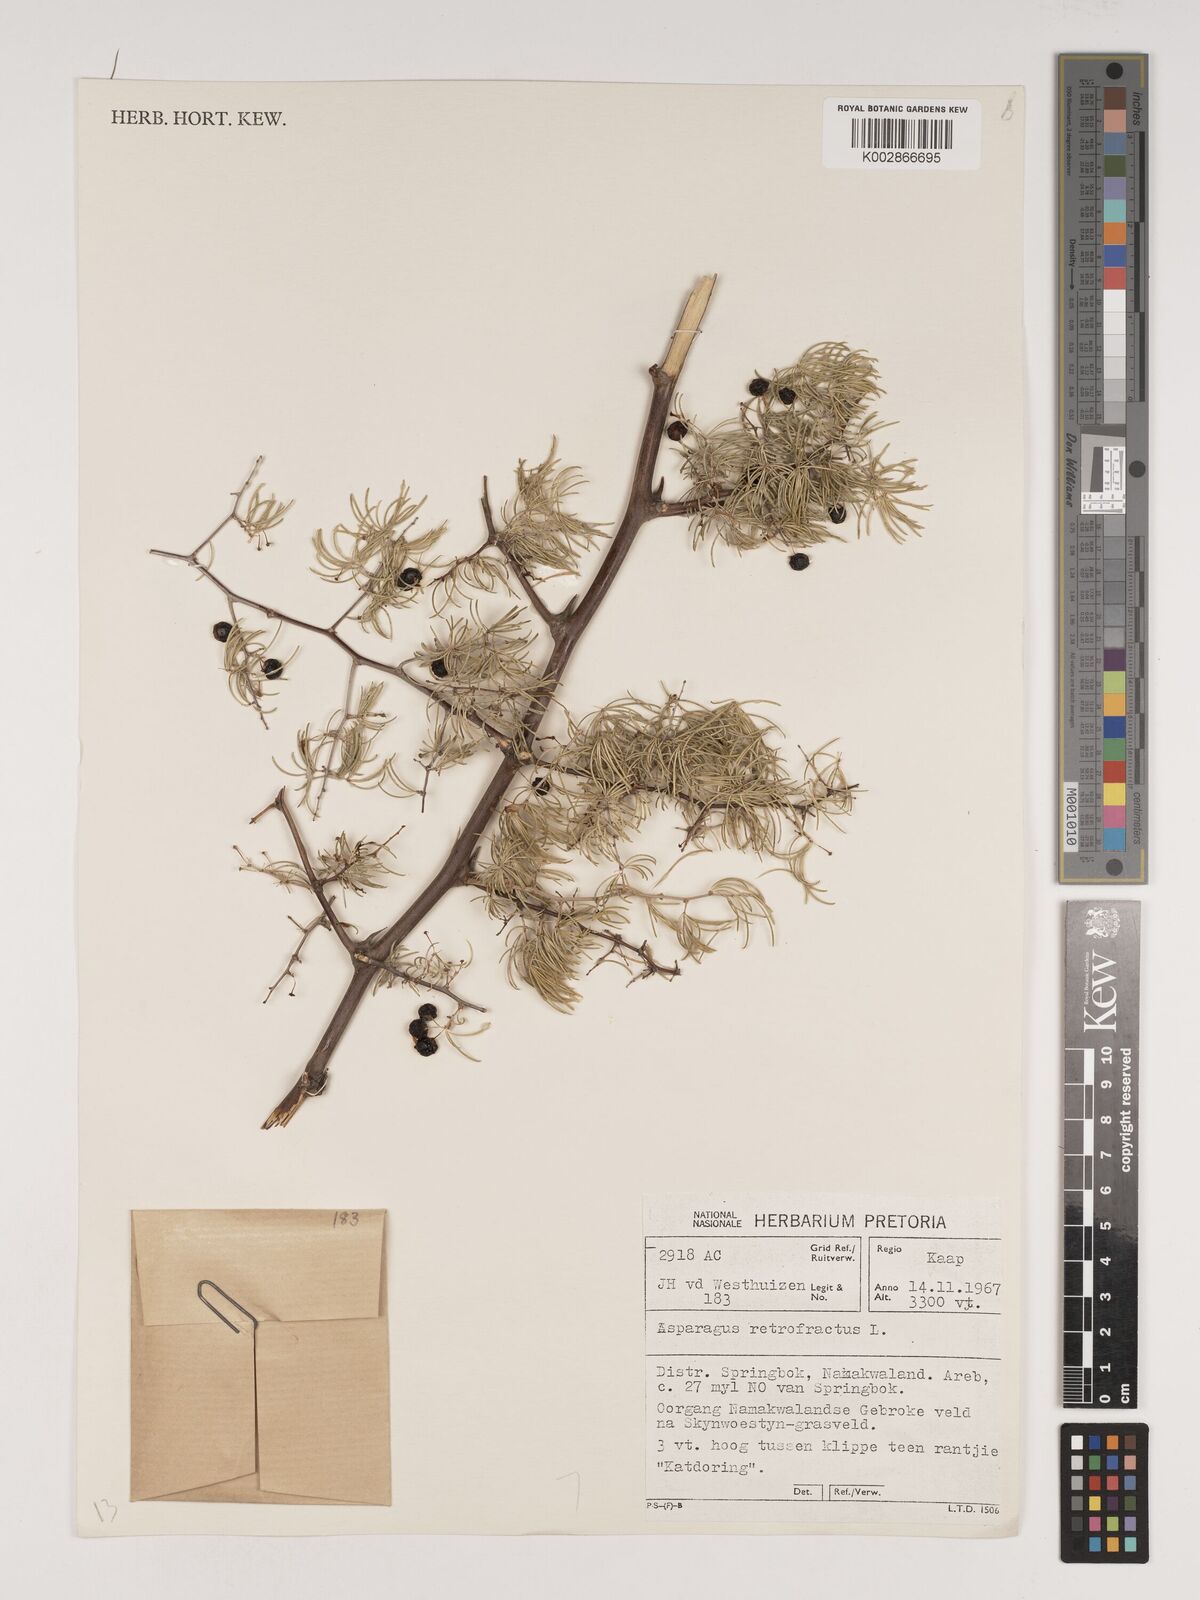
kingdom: Plantae
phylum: Tracheophyta
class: Liliopsida
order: Asparagales
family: Asparagaceae
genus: Asparagus
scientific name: Asparagus retrofractus
